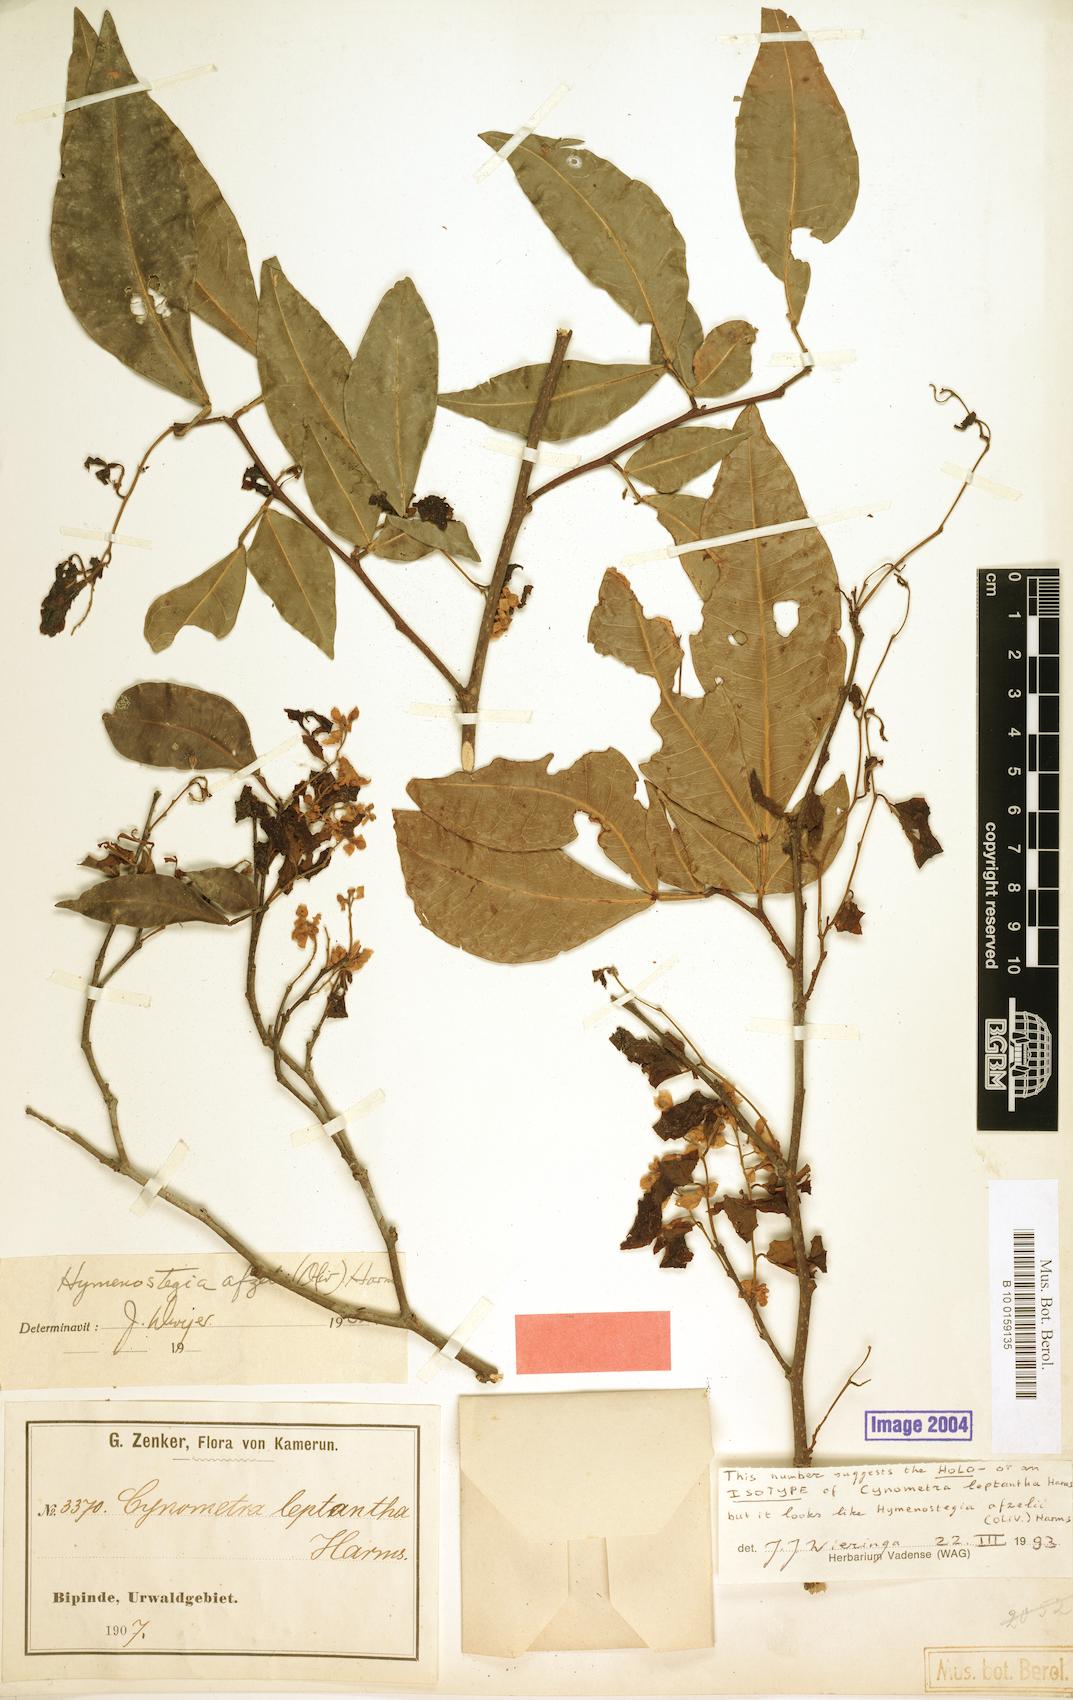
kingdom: Plantae
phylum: Tracheophyta
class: Magnoliopsida
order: Fabales
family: Fabaceae
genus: Annea
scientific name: Annea afzelii
